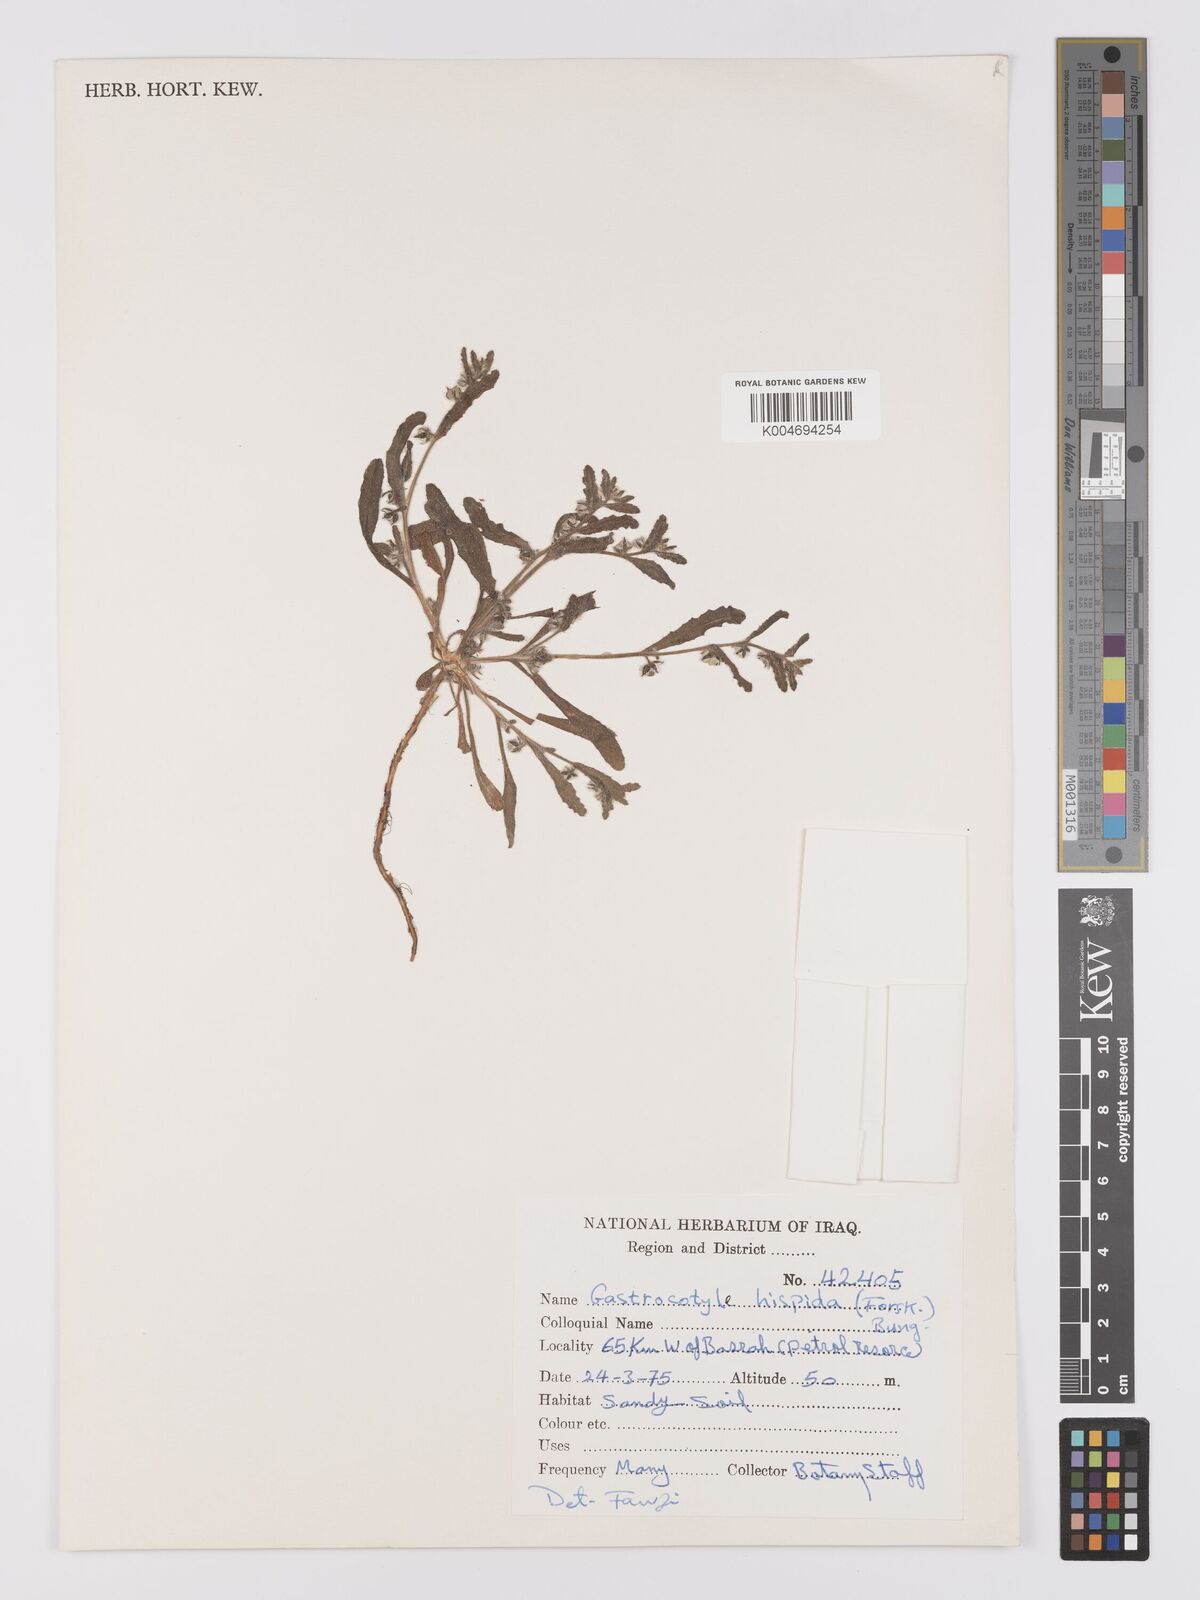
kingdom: Plantae
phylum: Tracheophyta
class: Magnoliopsida
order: Boraginales
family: Boraginaceae
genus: Gastrocotyle
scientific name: Gastrocotyle hispida
